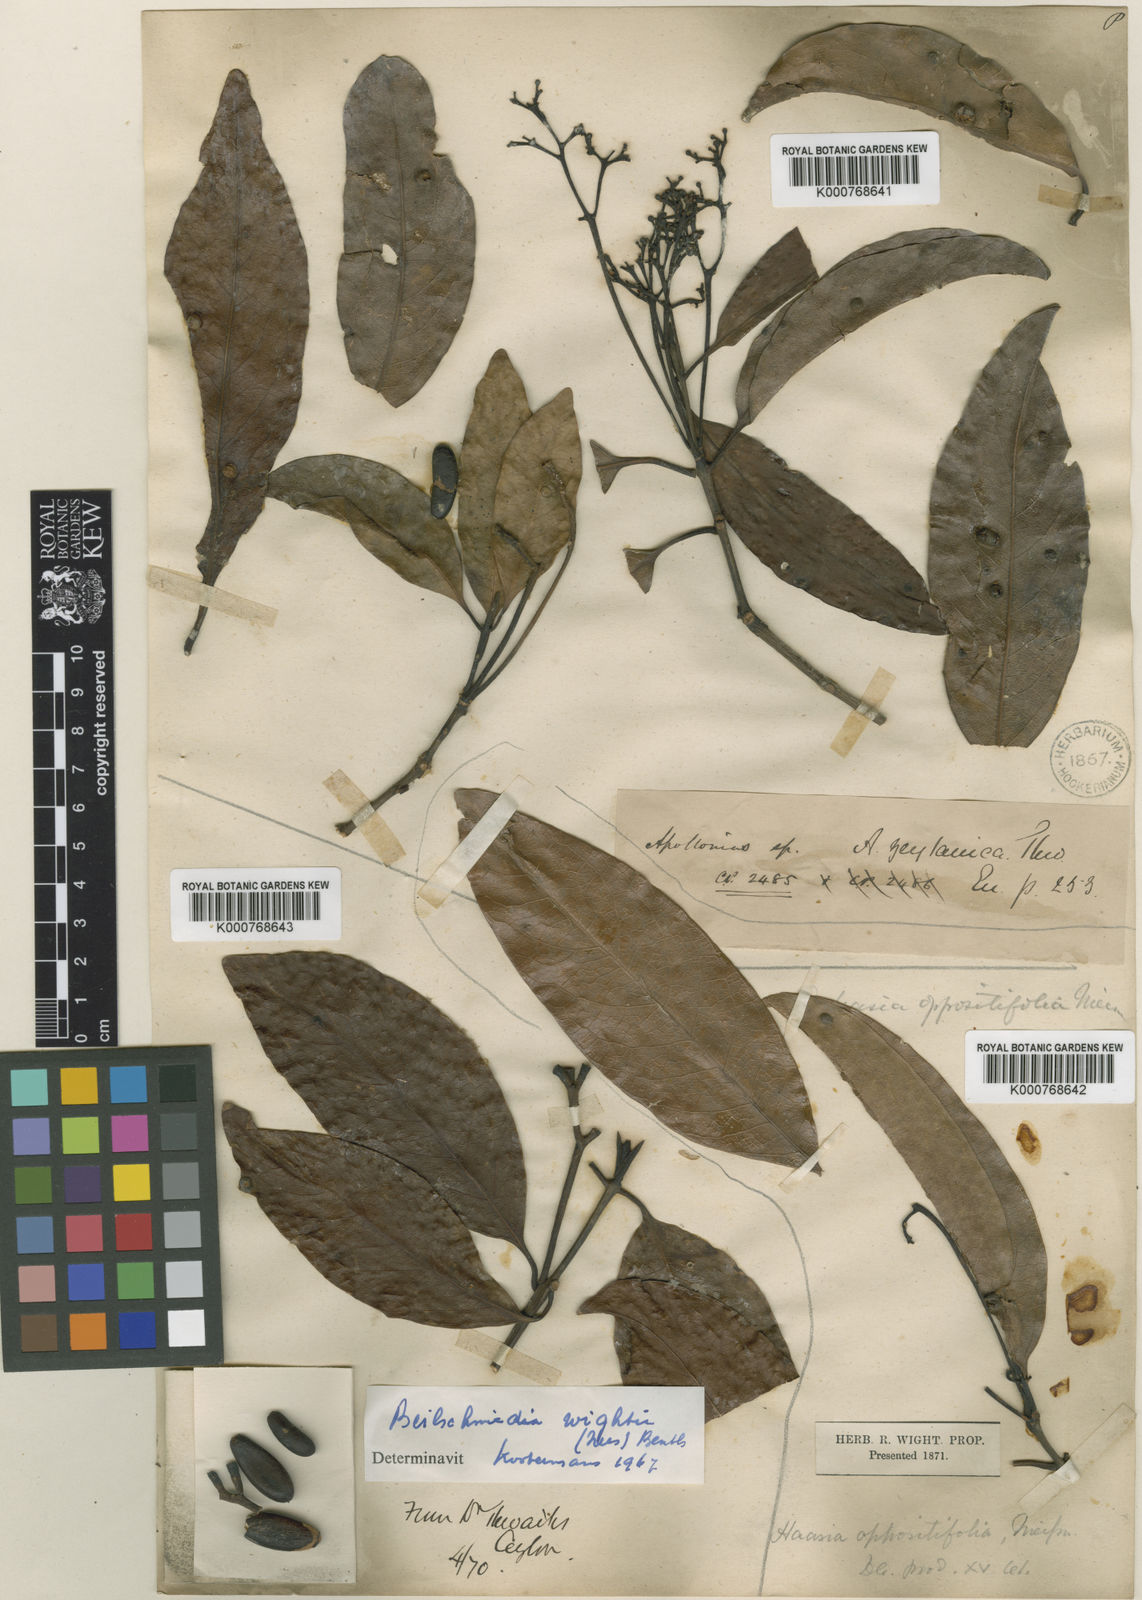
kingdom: Plantae
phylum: Tracheophyta
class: Magnoliopsida
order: Laurales
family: Lauraceae
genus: Beilschmiedia
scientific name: Beilschmiedia zeylanica
